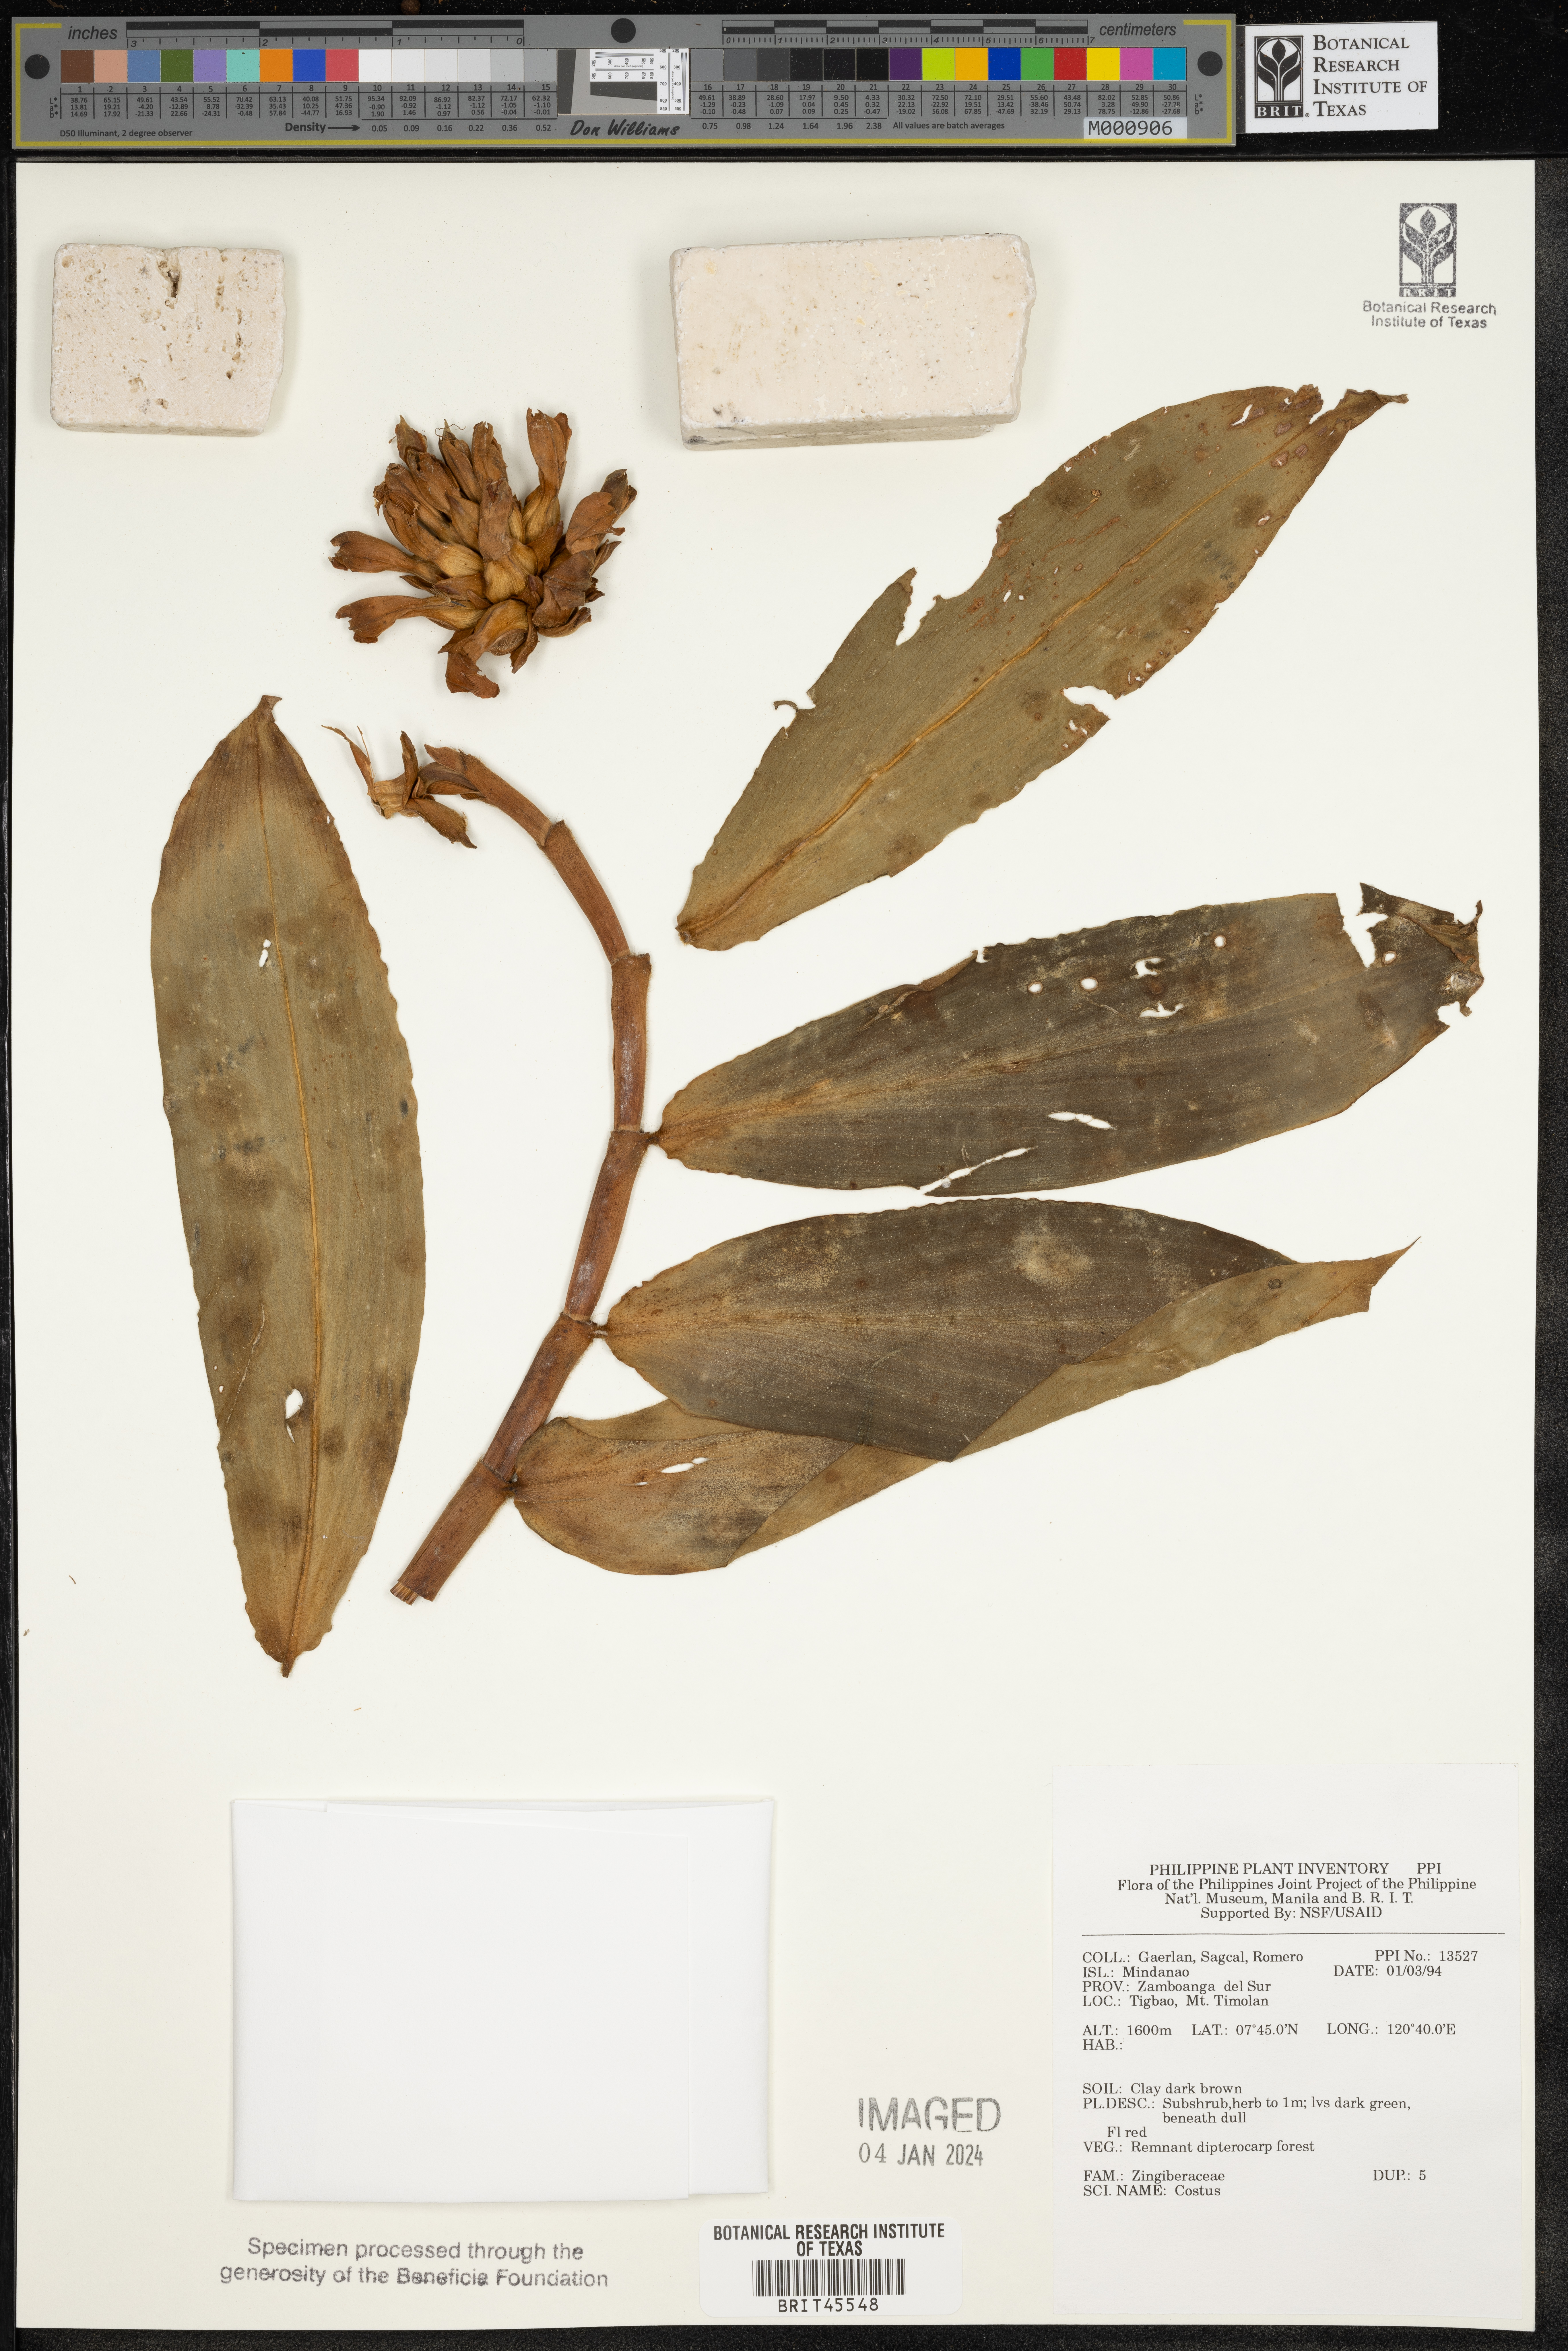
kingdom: Plantae
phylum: Tracheophyta
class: Liliopsida
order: Zingiberales
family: Costaceae
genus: Costus
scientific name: Costus
